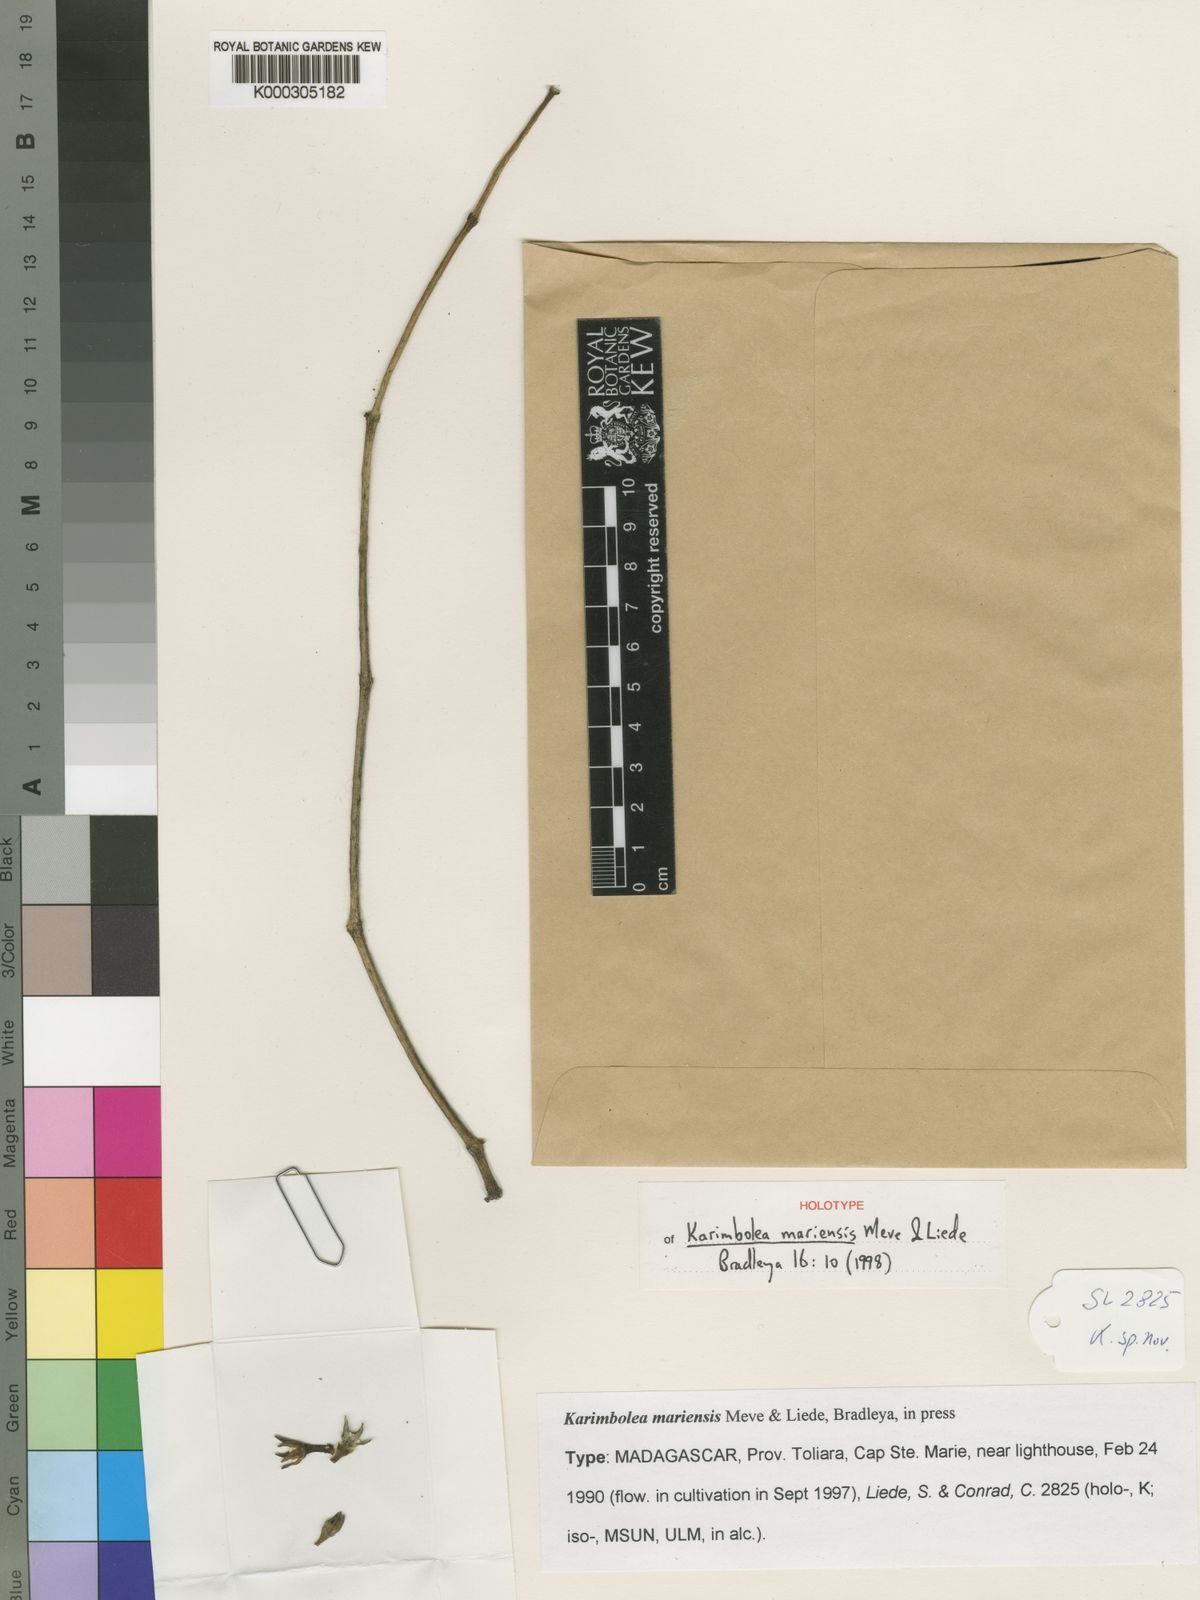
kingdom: Plantae
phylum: Tracheophyta
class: Magnoliopsida
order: Gentianales
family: Apocynaceae
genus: Cynanchum
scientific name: Cynanchum mariense
